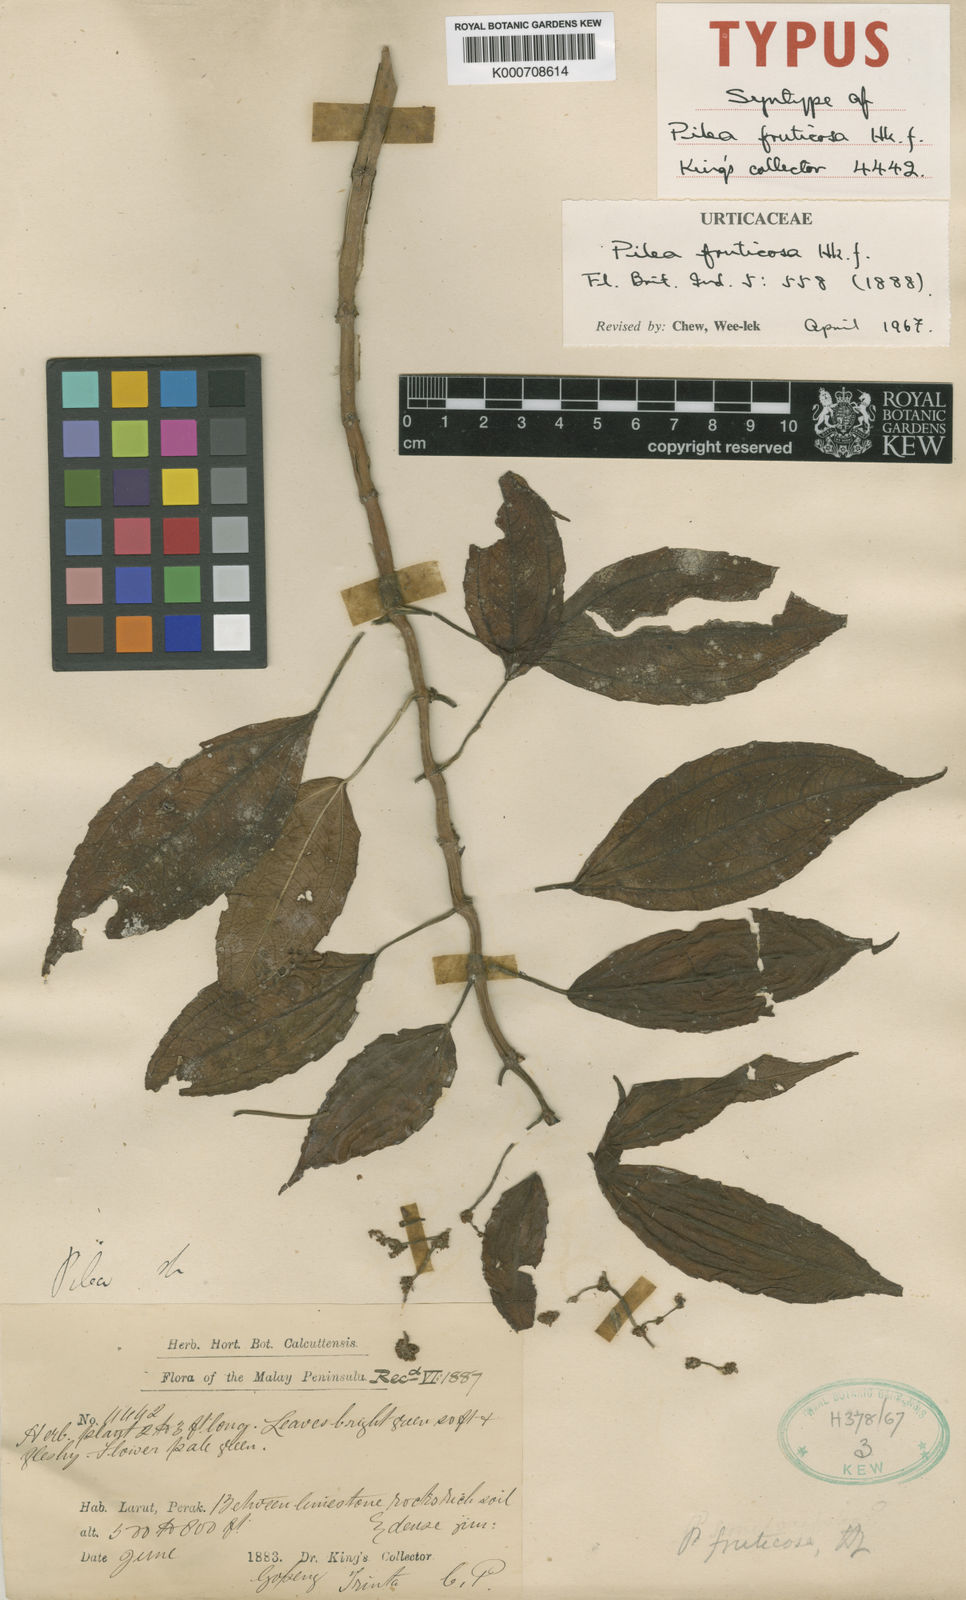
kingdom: Plantae
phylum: Tracheophyta
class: Magnoliopsida
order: Rosales
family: Urticaceae
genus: Pilea
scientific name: Pilea fruticosa
